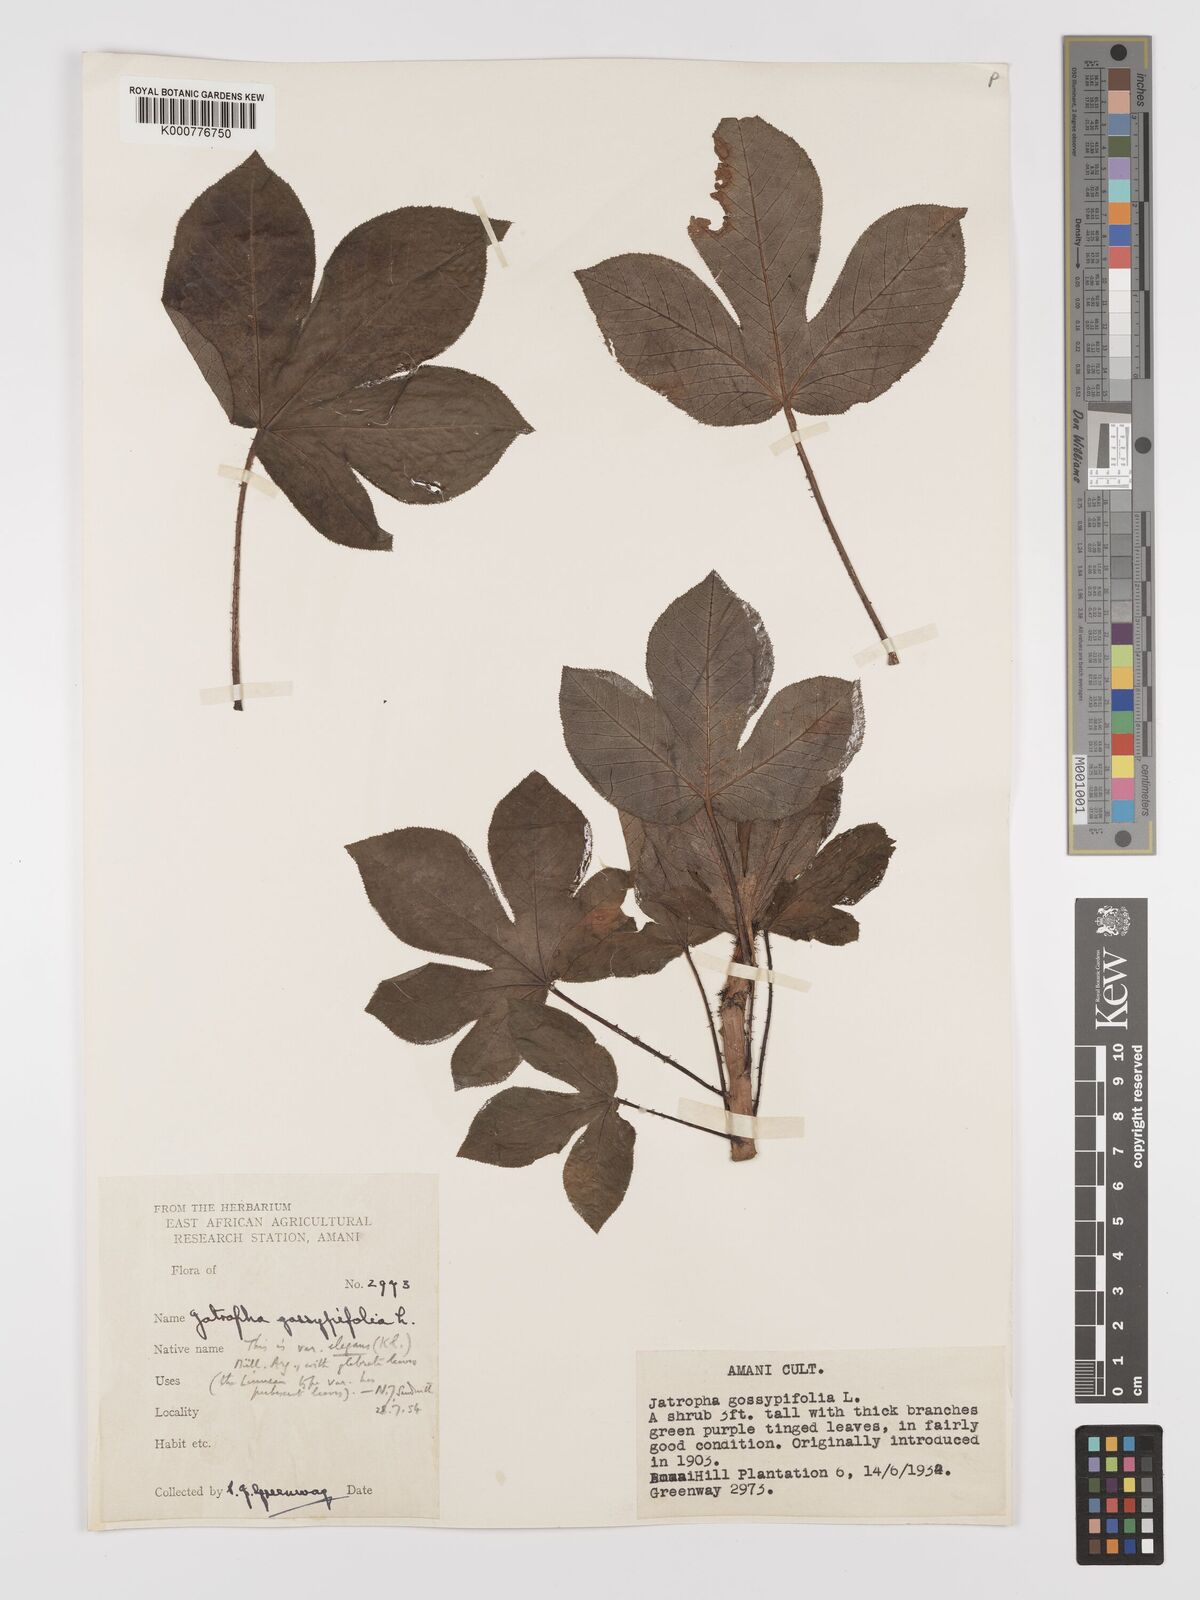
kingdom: Plantae
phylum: Tracheophyta
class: Magnoliopsida
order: Malpighiales
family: Euphorbiaceae
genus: Jatropha
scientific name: Jatropha gossypiifolia
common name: Bellyache bush
